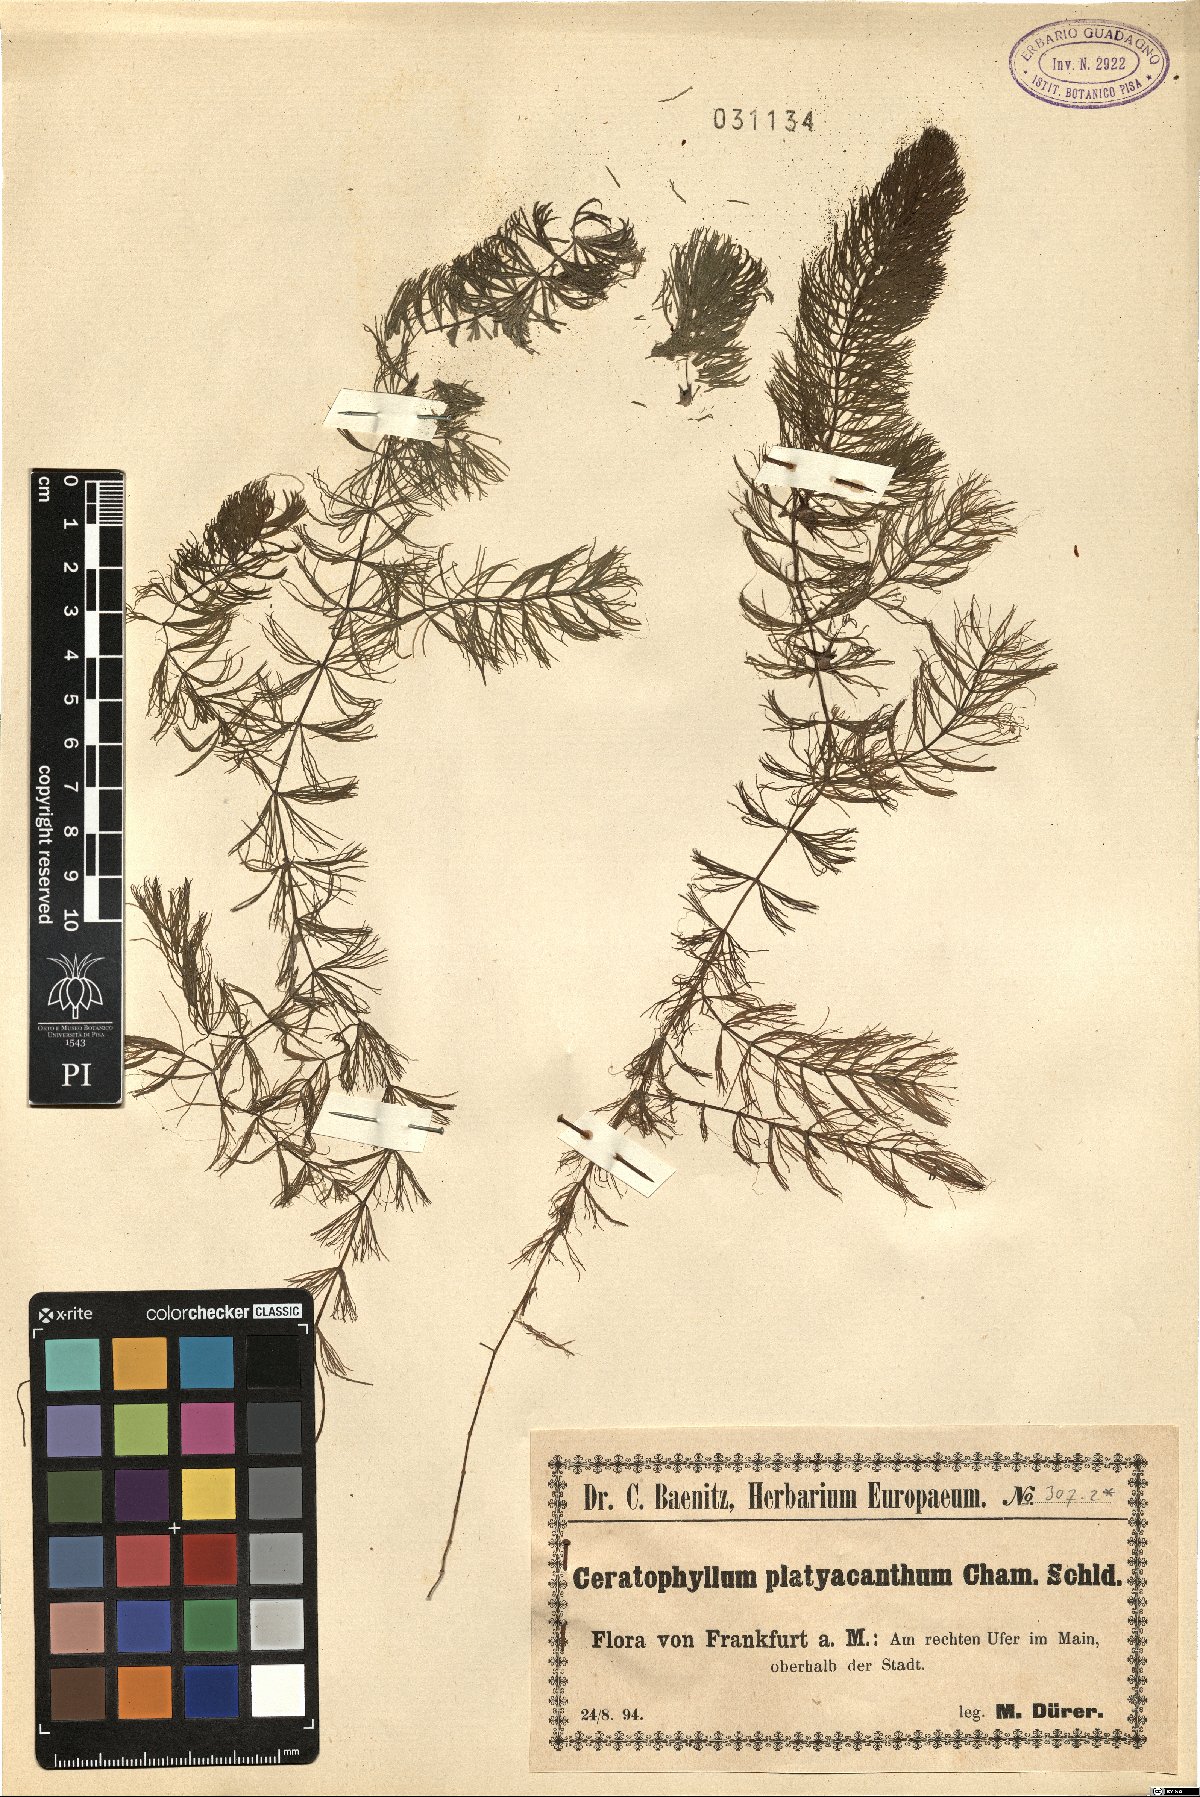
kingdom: Plantae
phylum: Tracheophyta
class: Magnoliopsida
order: Ceratophyllales
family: Ceratophyllaceae
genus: Ceratophyllum
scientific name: Ceratophyllum platyacanthum
